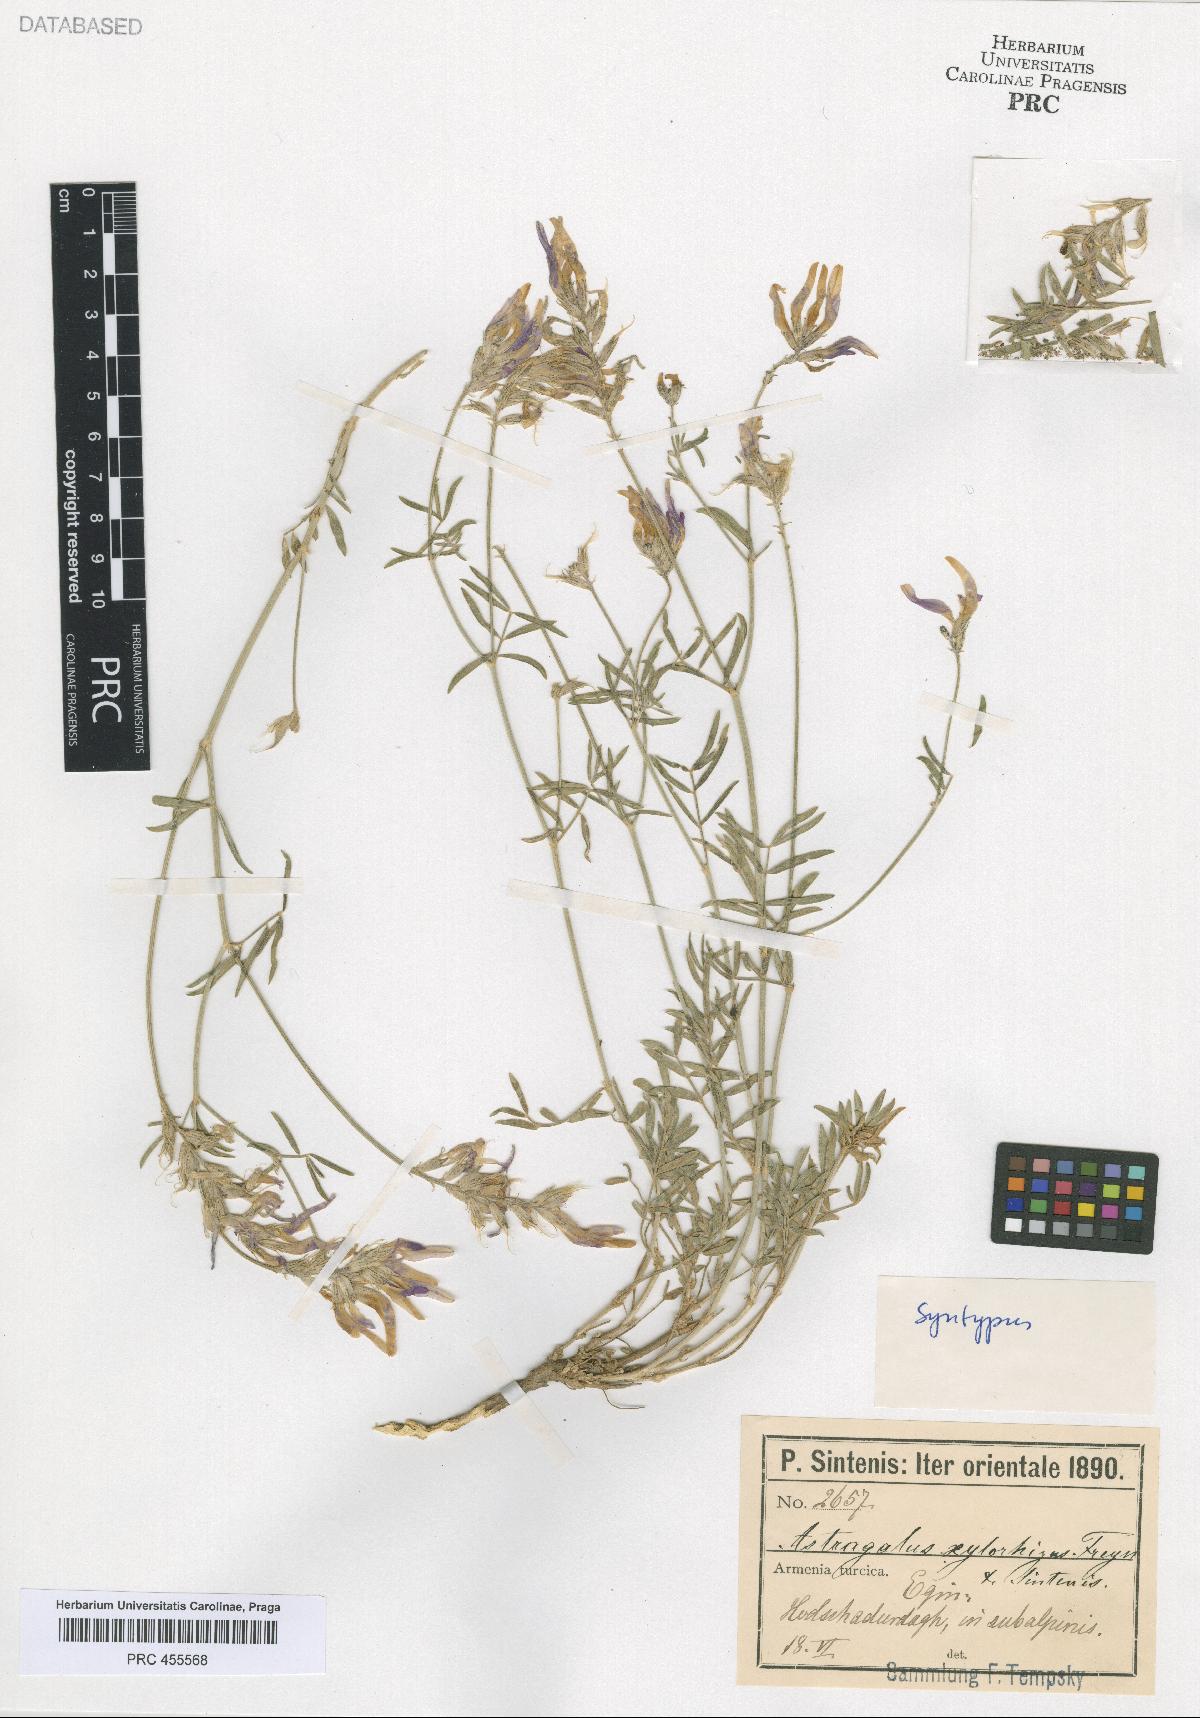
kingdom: Plantae
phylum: Tracheophyta
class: Magnoliopsida
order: Fabales
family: Fabaceae
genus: Astragalus
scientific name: Astragalus aduncus
